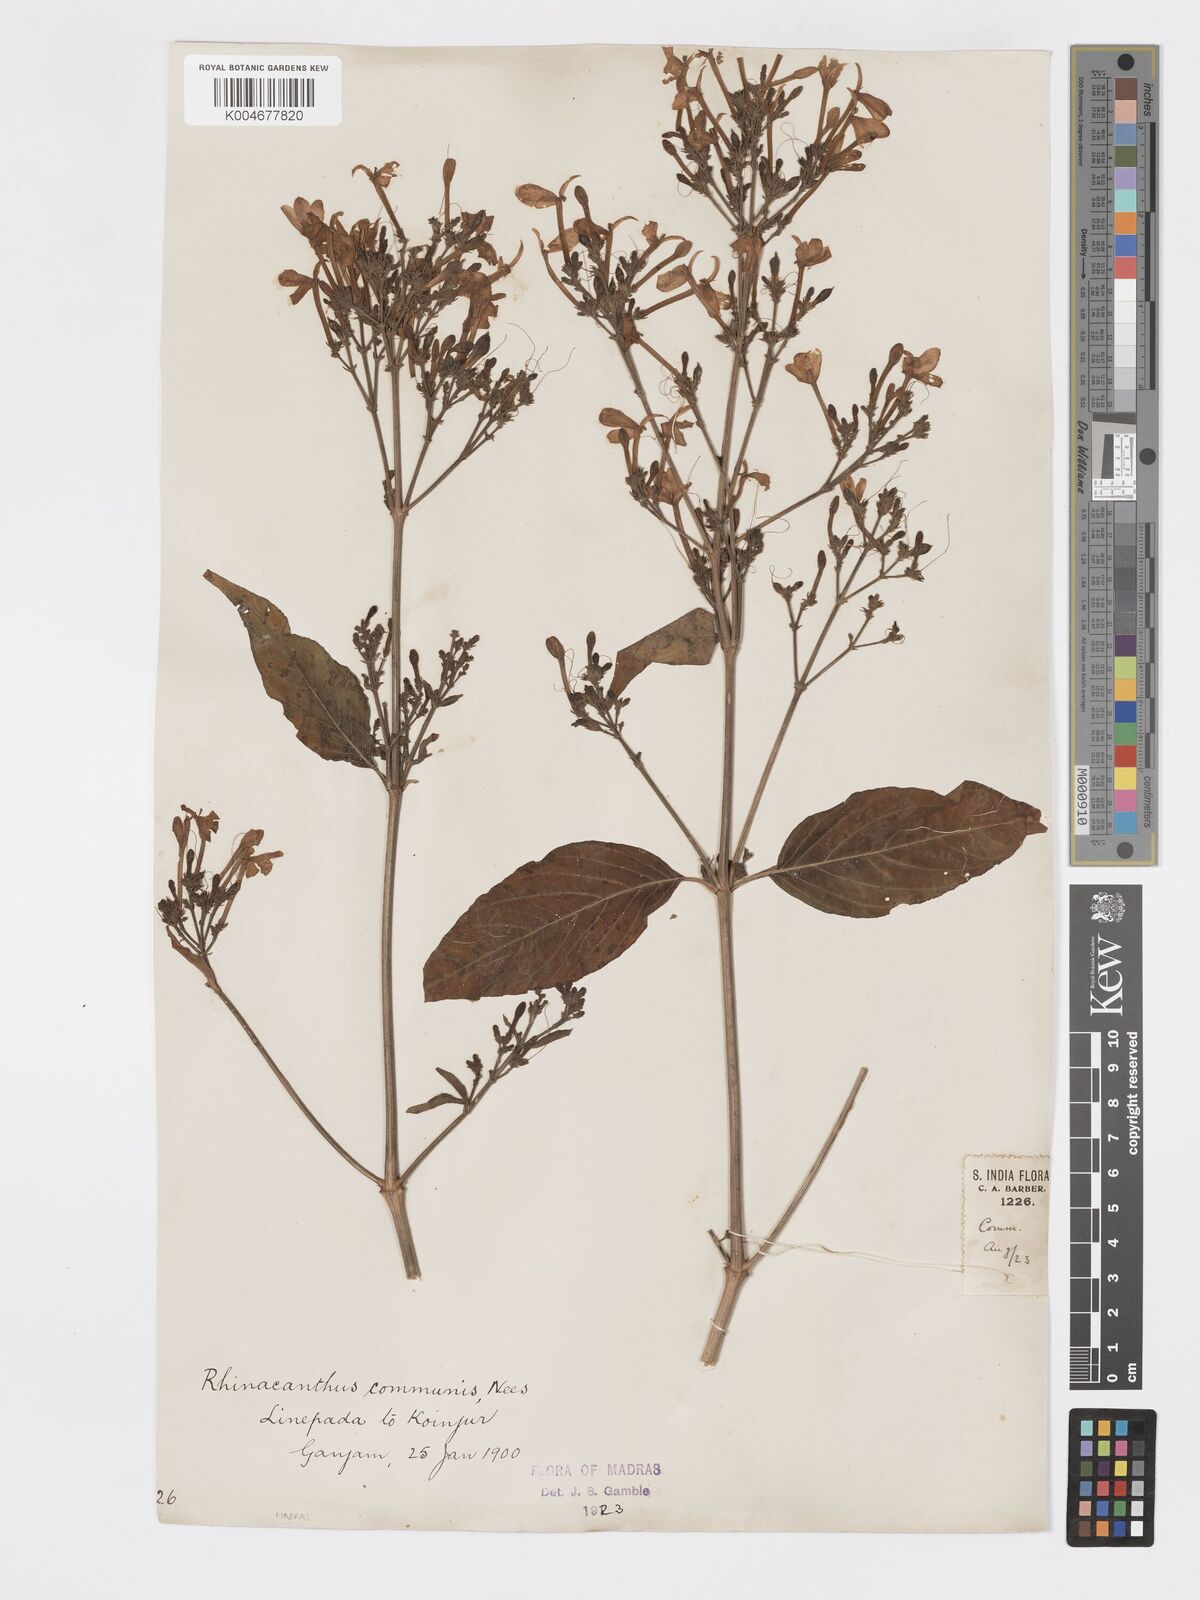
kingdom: Plantae
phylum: Tracheophyta
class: Magnoliopsida
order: Lamiales
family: Acanthaceae
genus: Rhinacanthus
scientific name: Rhinacanthus nasutus
